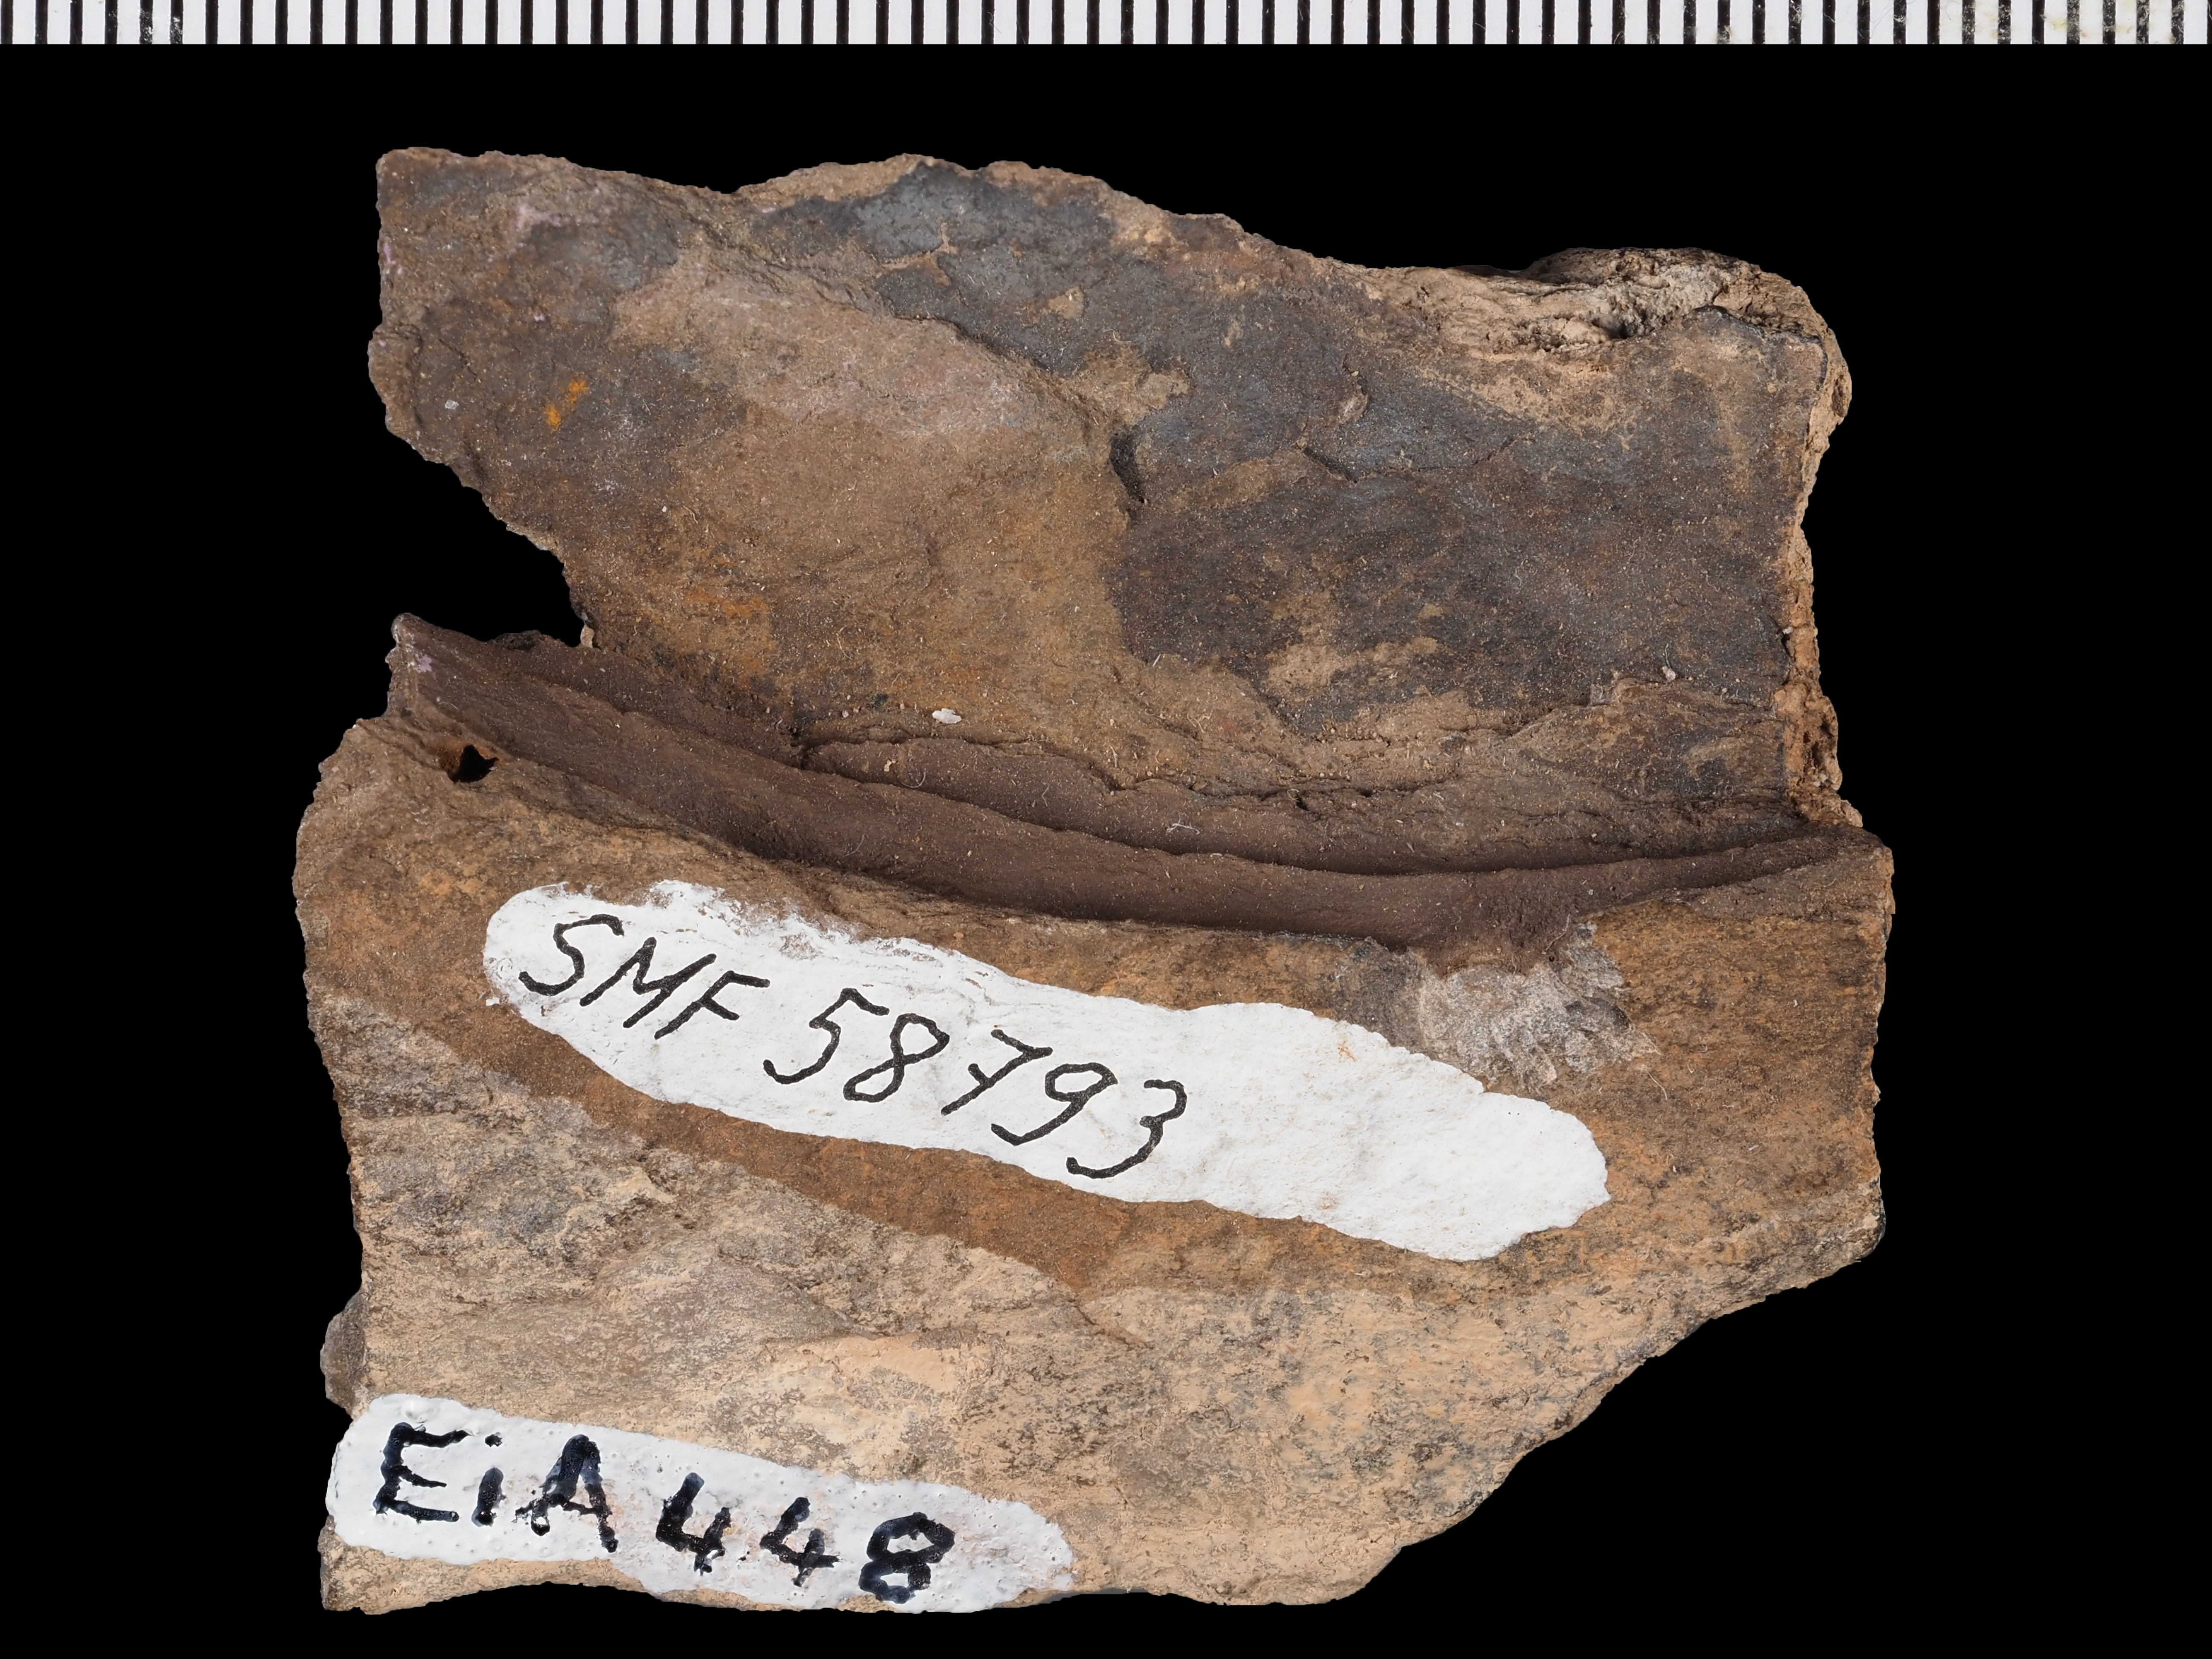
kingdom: Animalia
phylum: Arthropoda
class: Trilobita
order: Phacopida
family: Bathycheilidae
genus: Burmeisterella
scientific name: Burmeisterella
